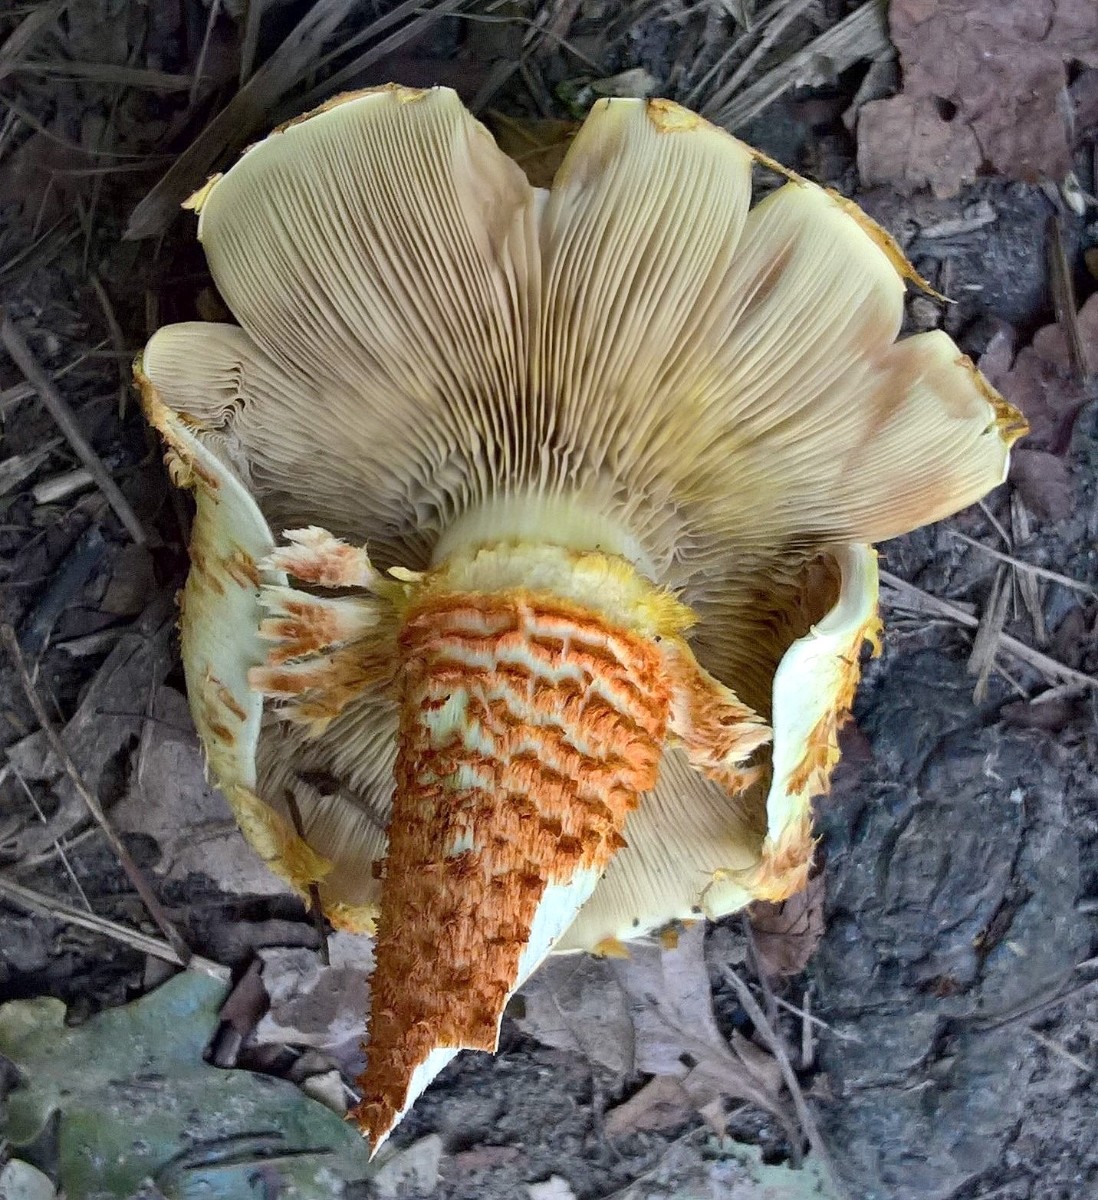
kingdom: Fungi
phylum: Basidiomycota
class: Agaricomycetes
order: Agaricales
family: Strophariaceae
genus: Pholiota
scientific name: Pholiota squarrosa
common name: krumskællet skælhat
